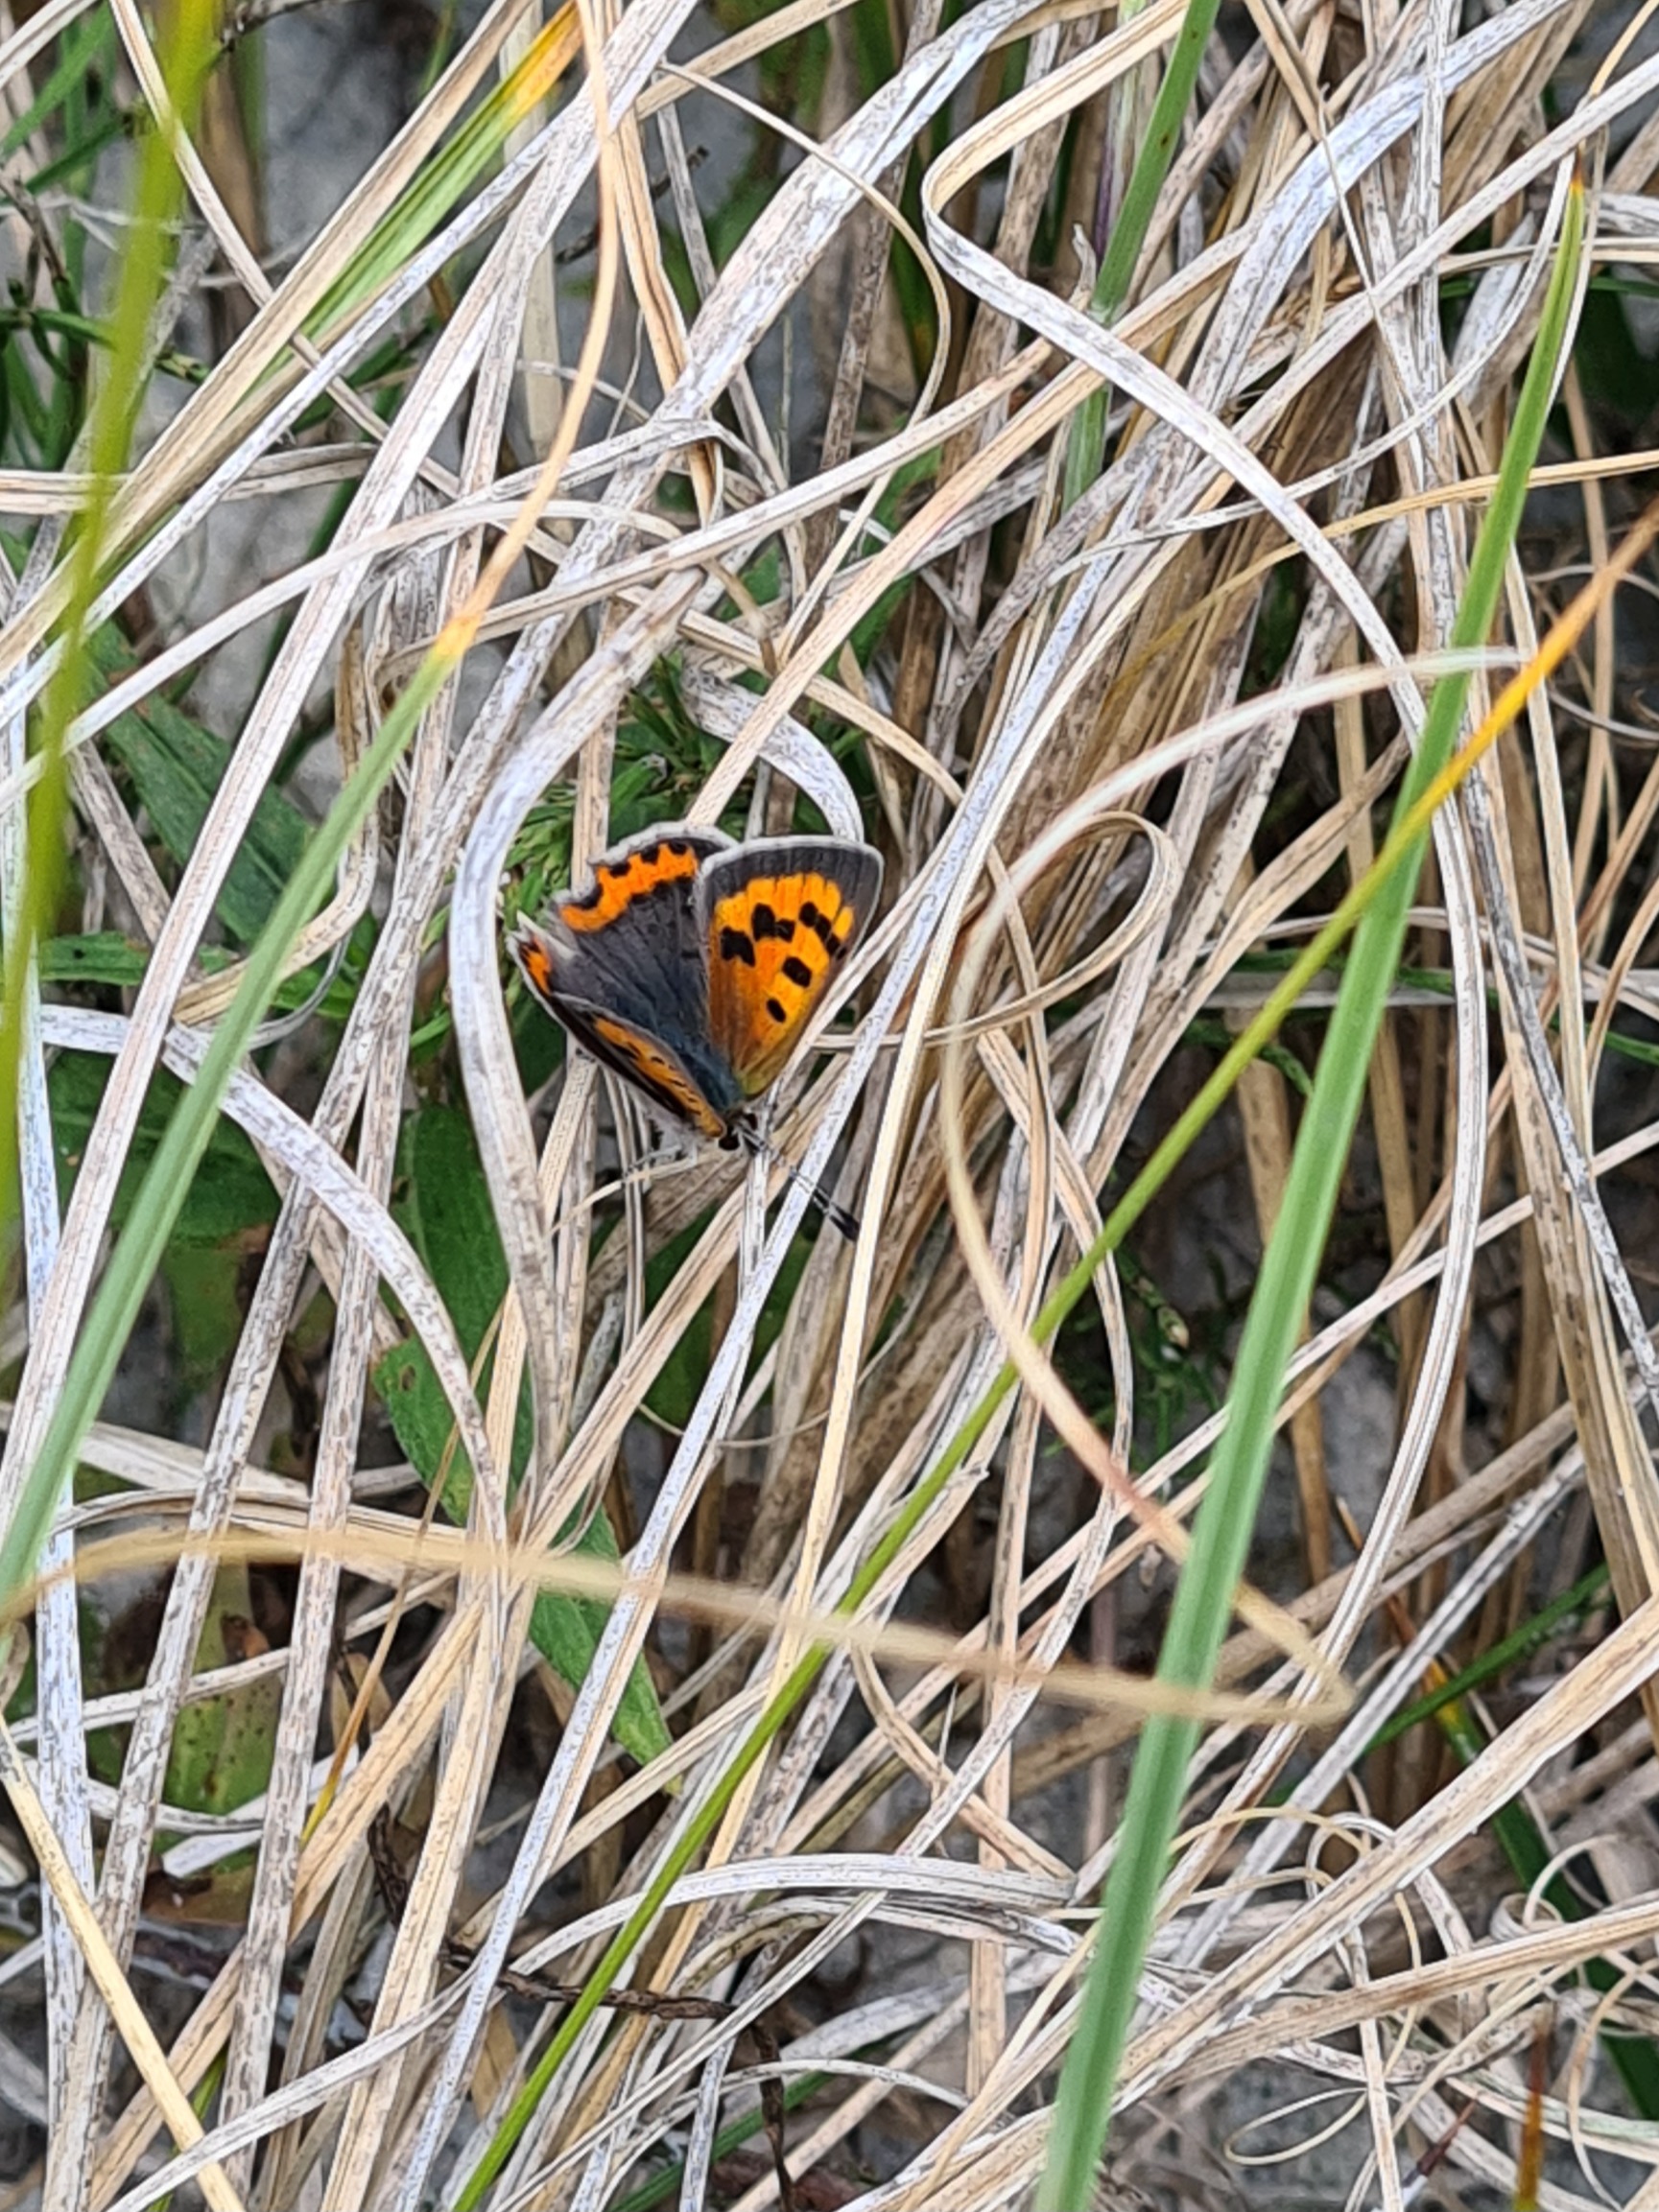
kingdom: Animalia
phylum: Arthropoda
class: Insecta
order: Lepidoptera
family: Lycaenidae
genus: Lycaena
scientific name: Lycaena phlaeas
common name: Lille ildfugl
